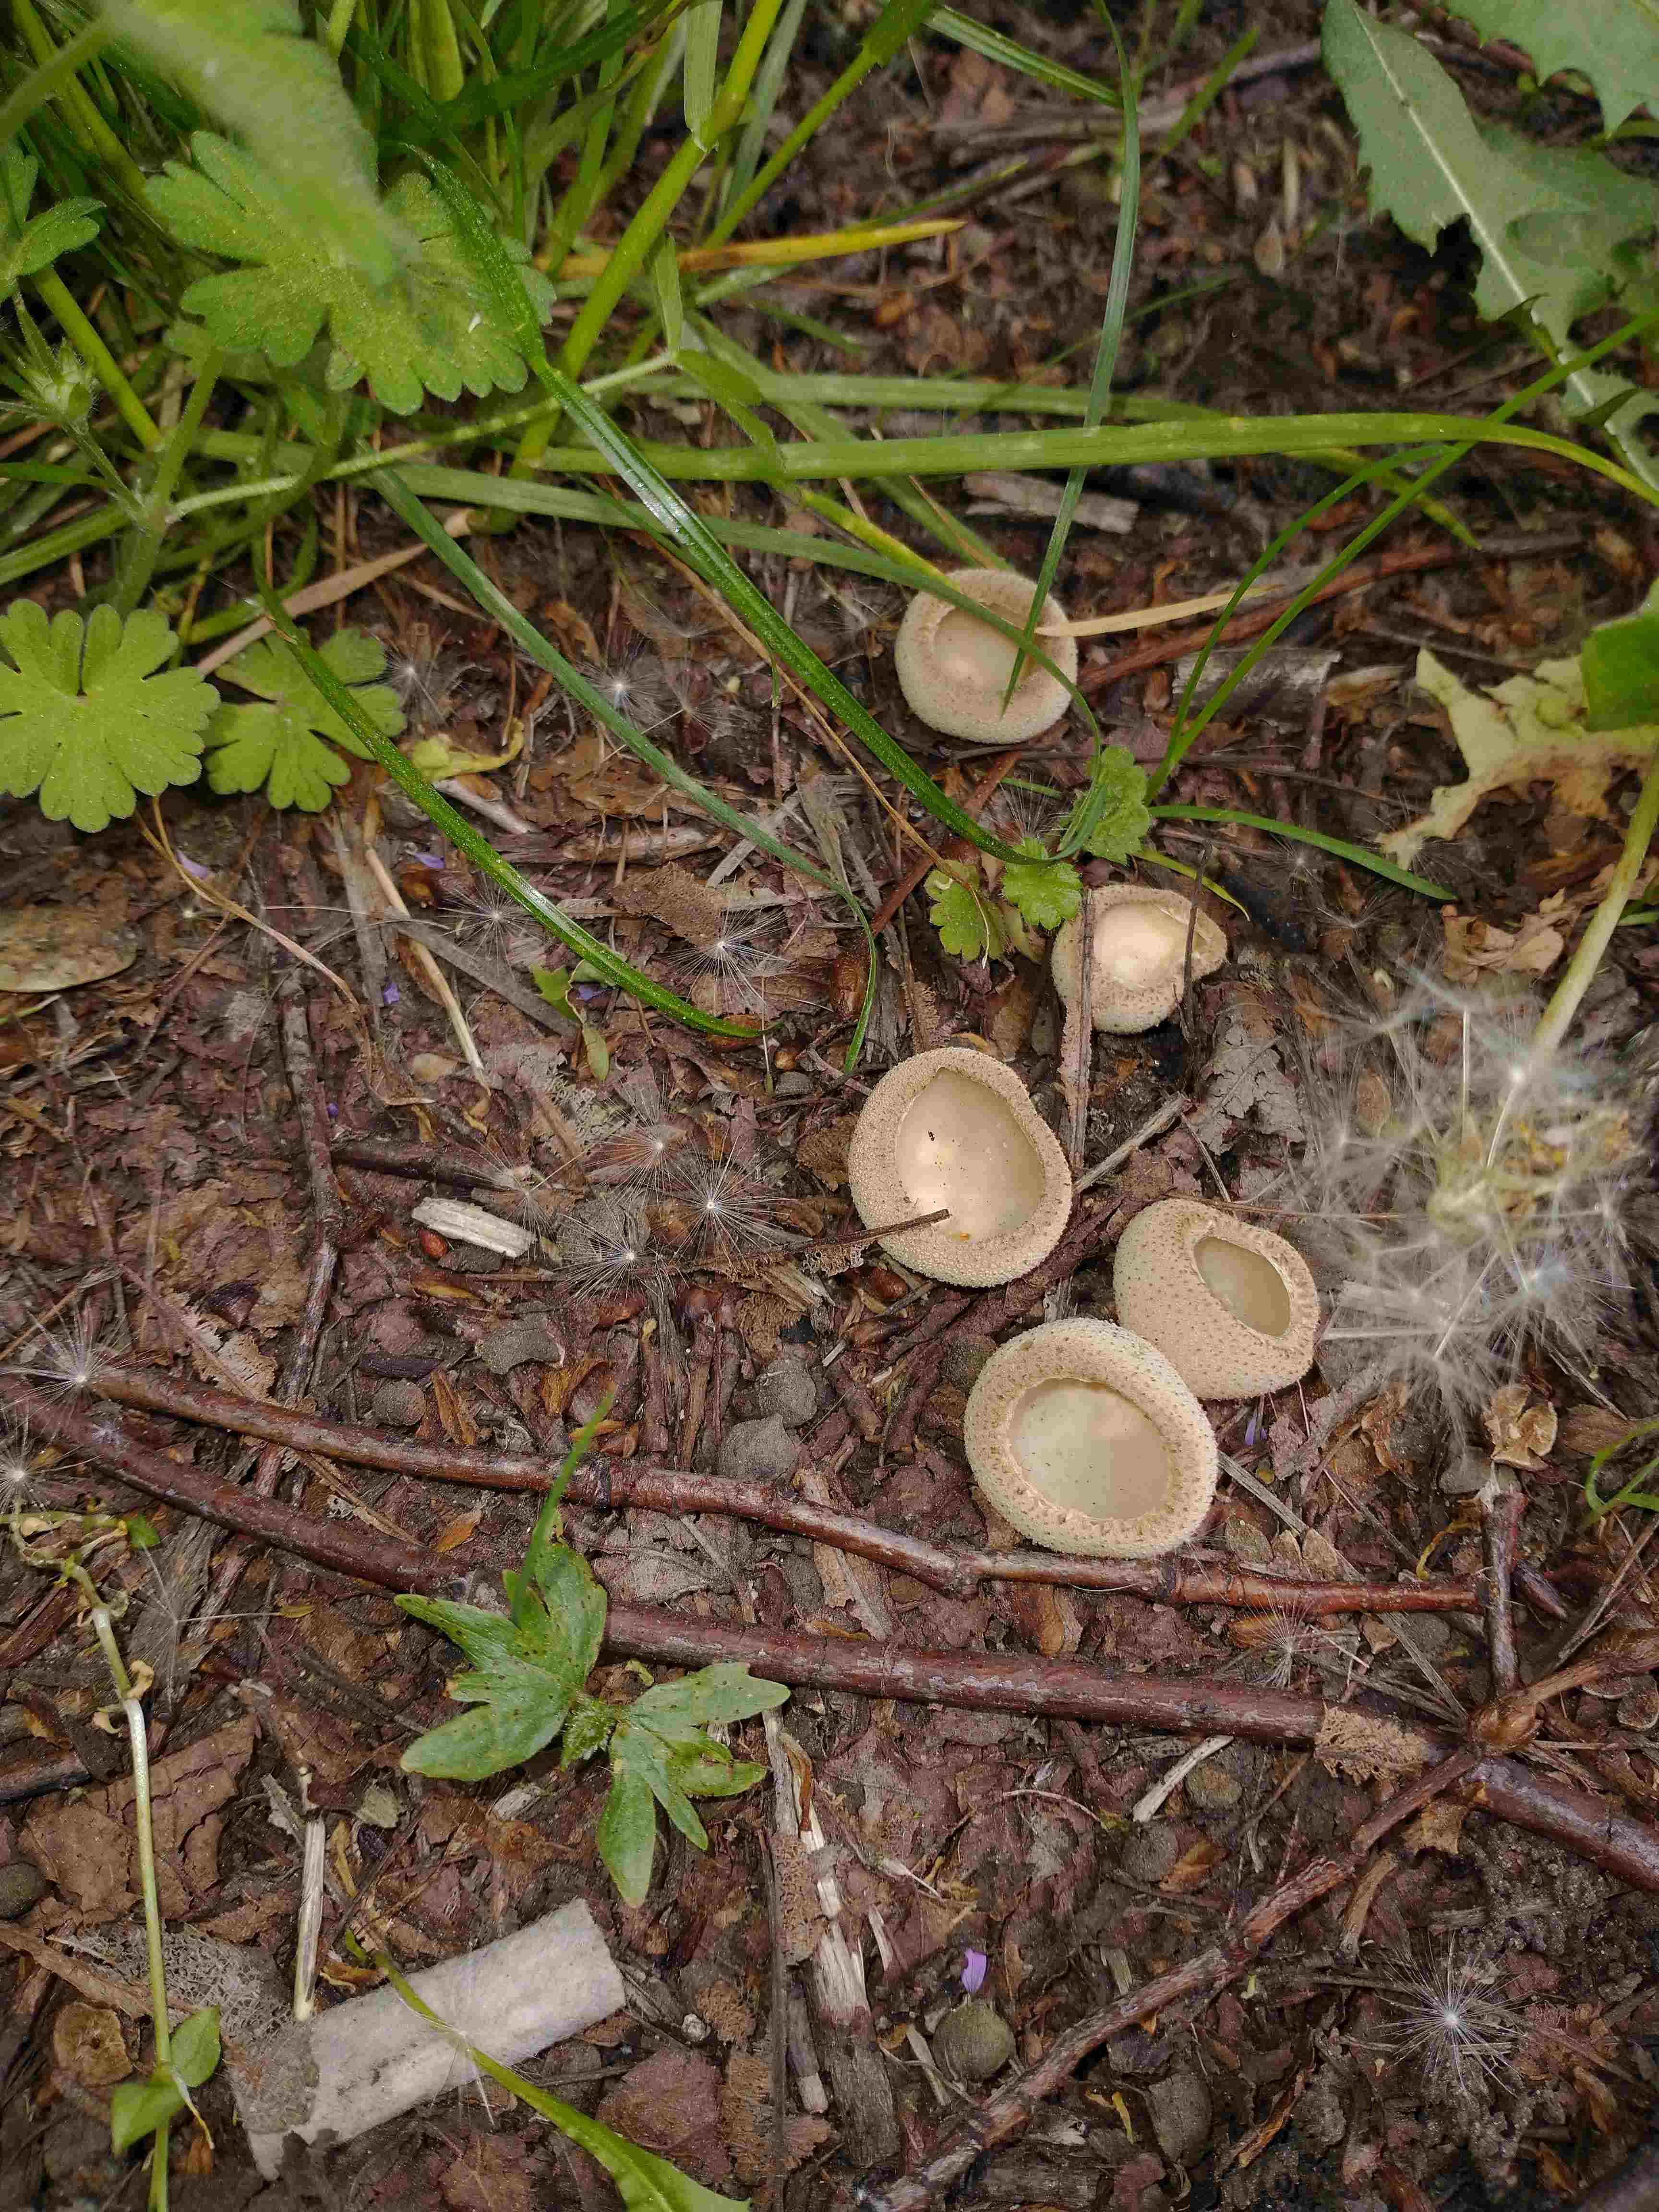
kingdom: Fungi
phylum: Ascomycota
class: Pezizomycetes
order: Pezizales
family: Pyronemataceae
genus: Tarzetta
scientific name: Tarzetta
